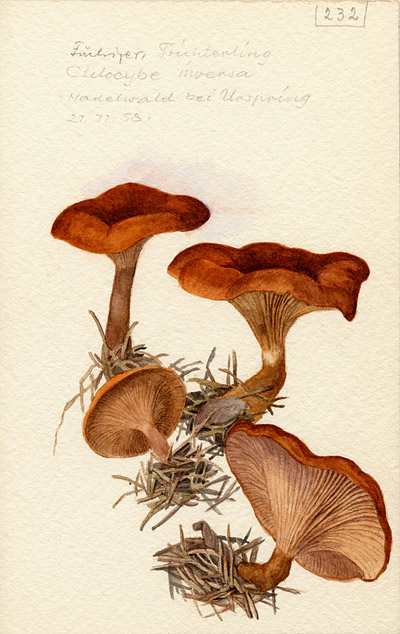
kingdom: Fungi
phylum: Basidiomycota
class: Agaricomycetes
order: Agaricales
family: Tricholomataceae
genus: Paralepista
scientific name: Paralepista flaccida
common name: Tawny funnel cap
